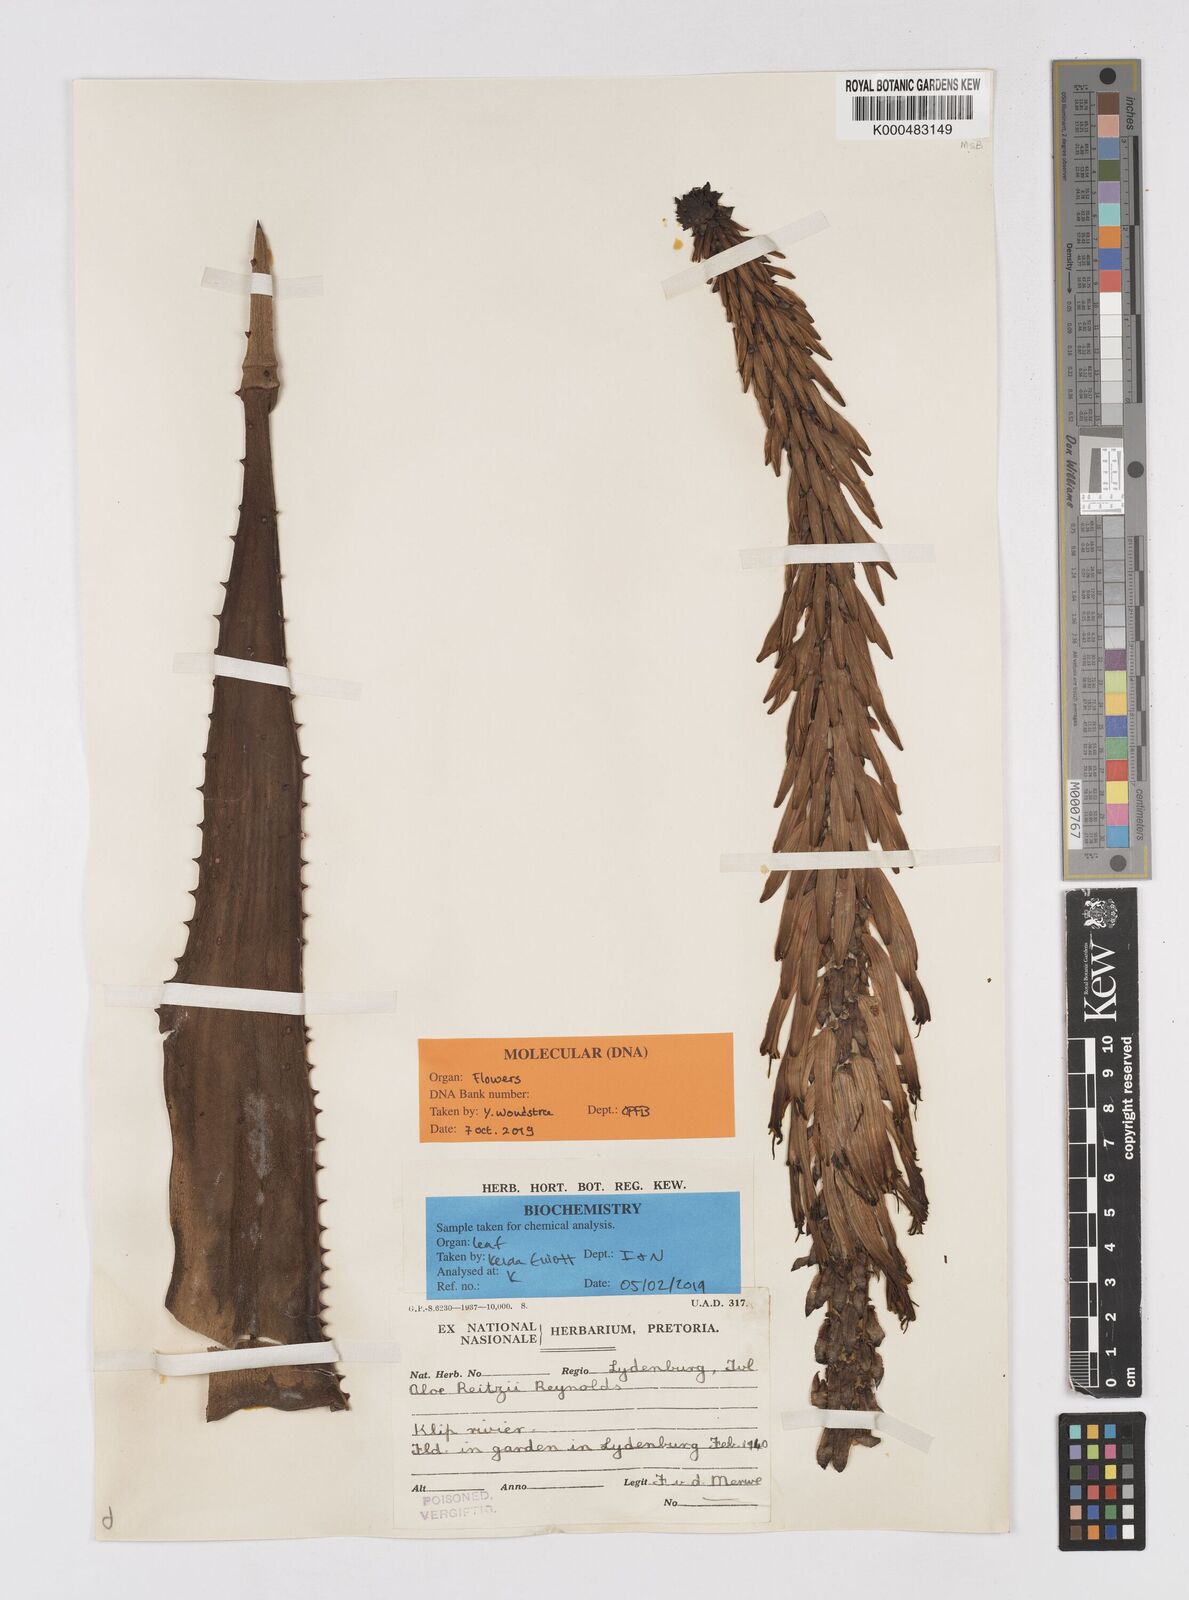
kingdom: Plantae
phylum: Tracheophyta
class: Liliopsida
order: Asparagales
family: Asphodelaceae
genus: Aloe
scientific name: Aloe reitzii
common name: Reitz's aloe
